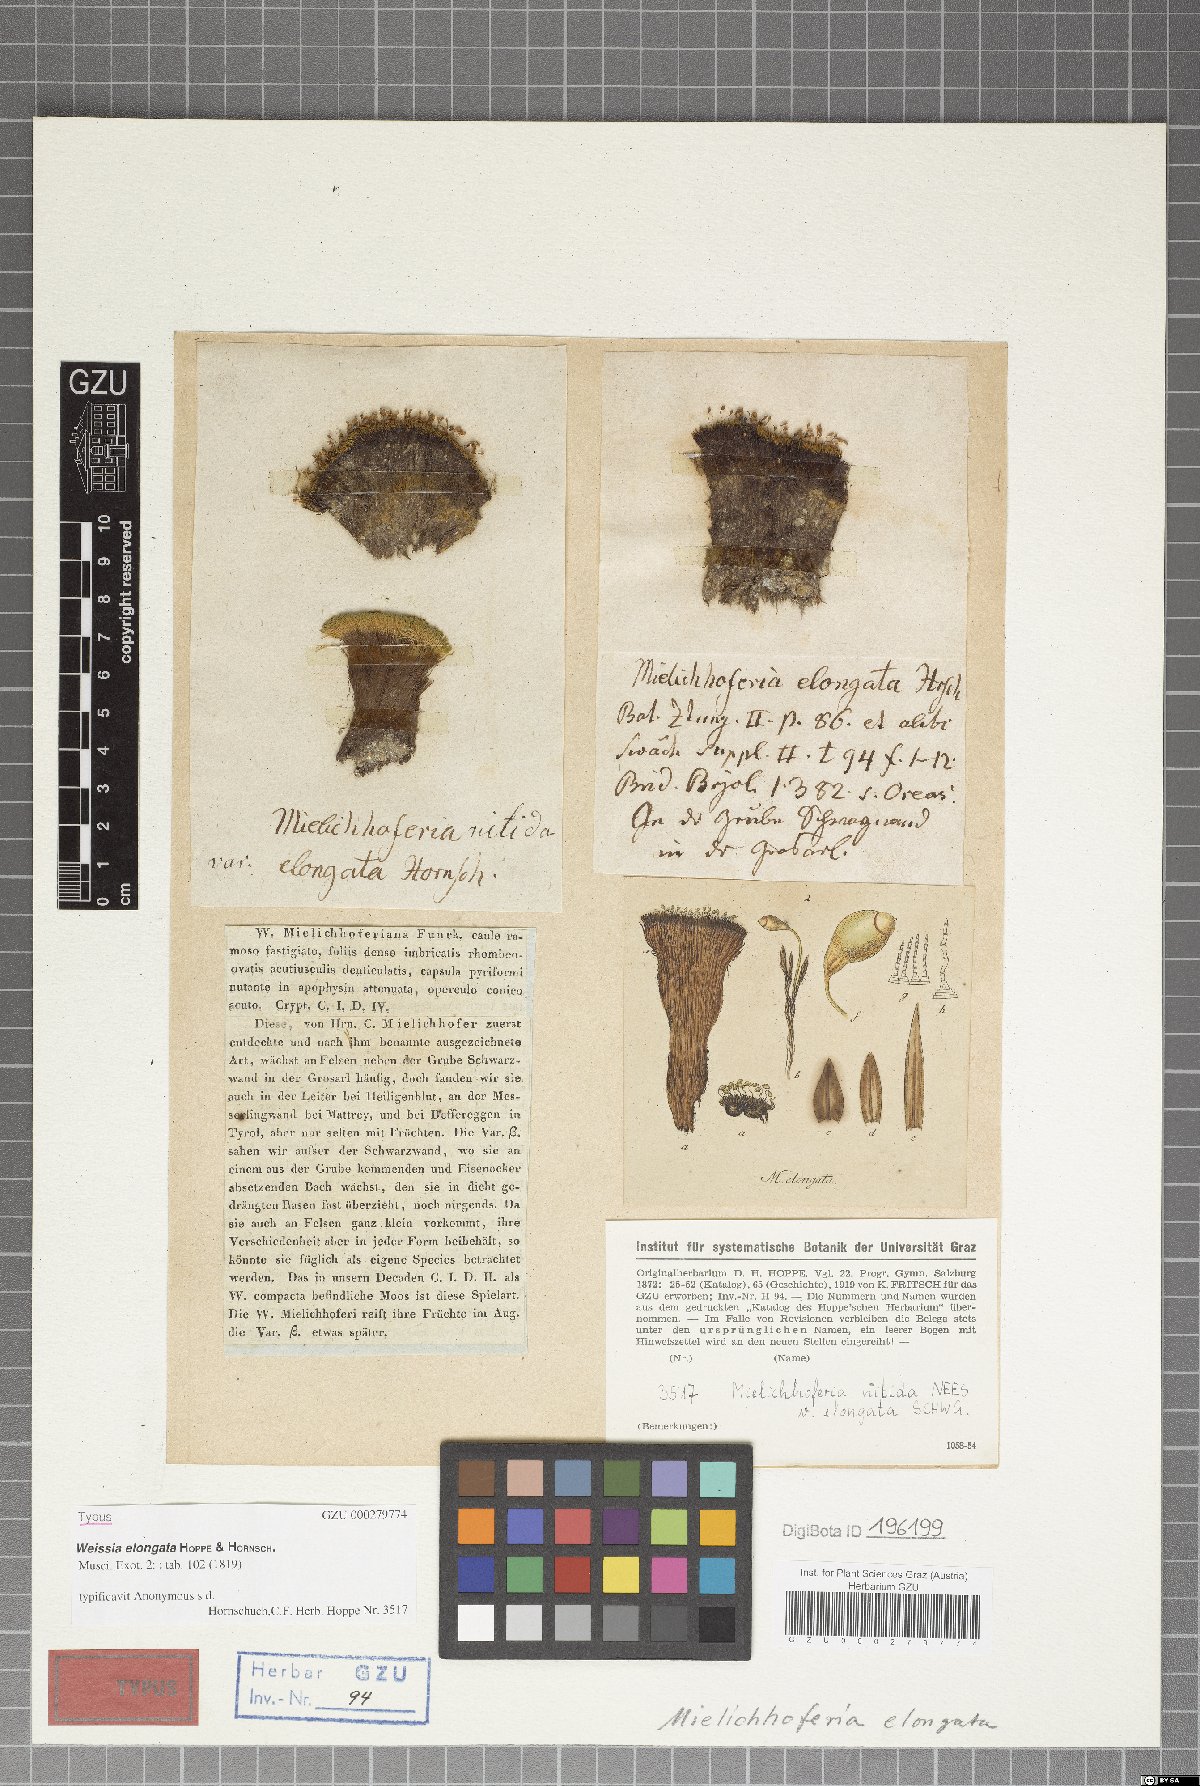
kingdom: Plantae
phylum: Bryophyta
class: Bryopsida
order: Bryales
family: Mniaceae
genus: Mielichhoferia
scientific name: Mielichhoferia elongata
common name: Elongate copper moss
